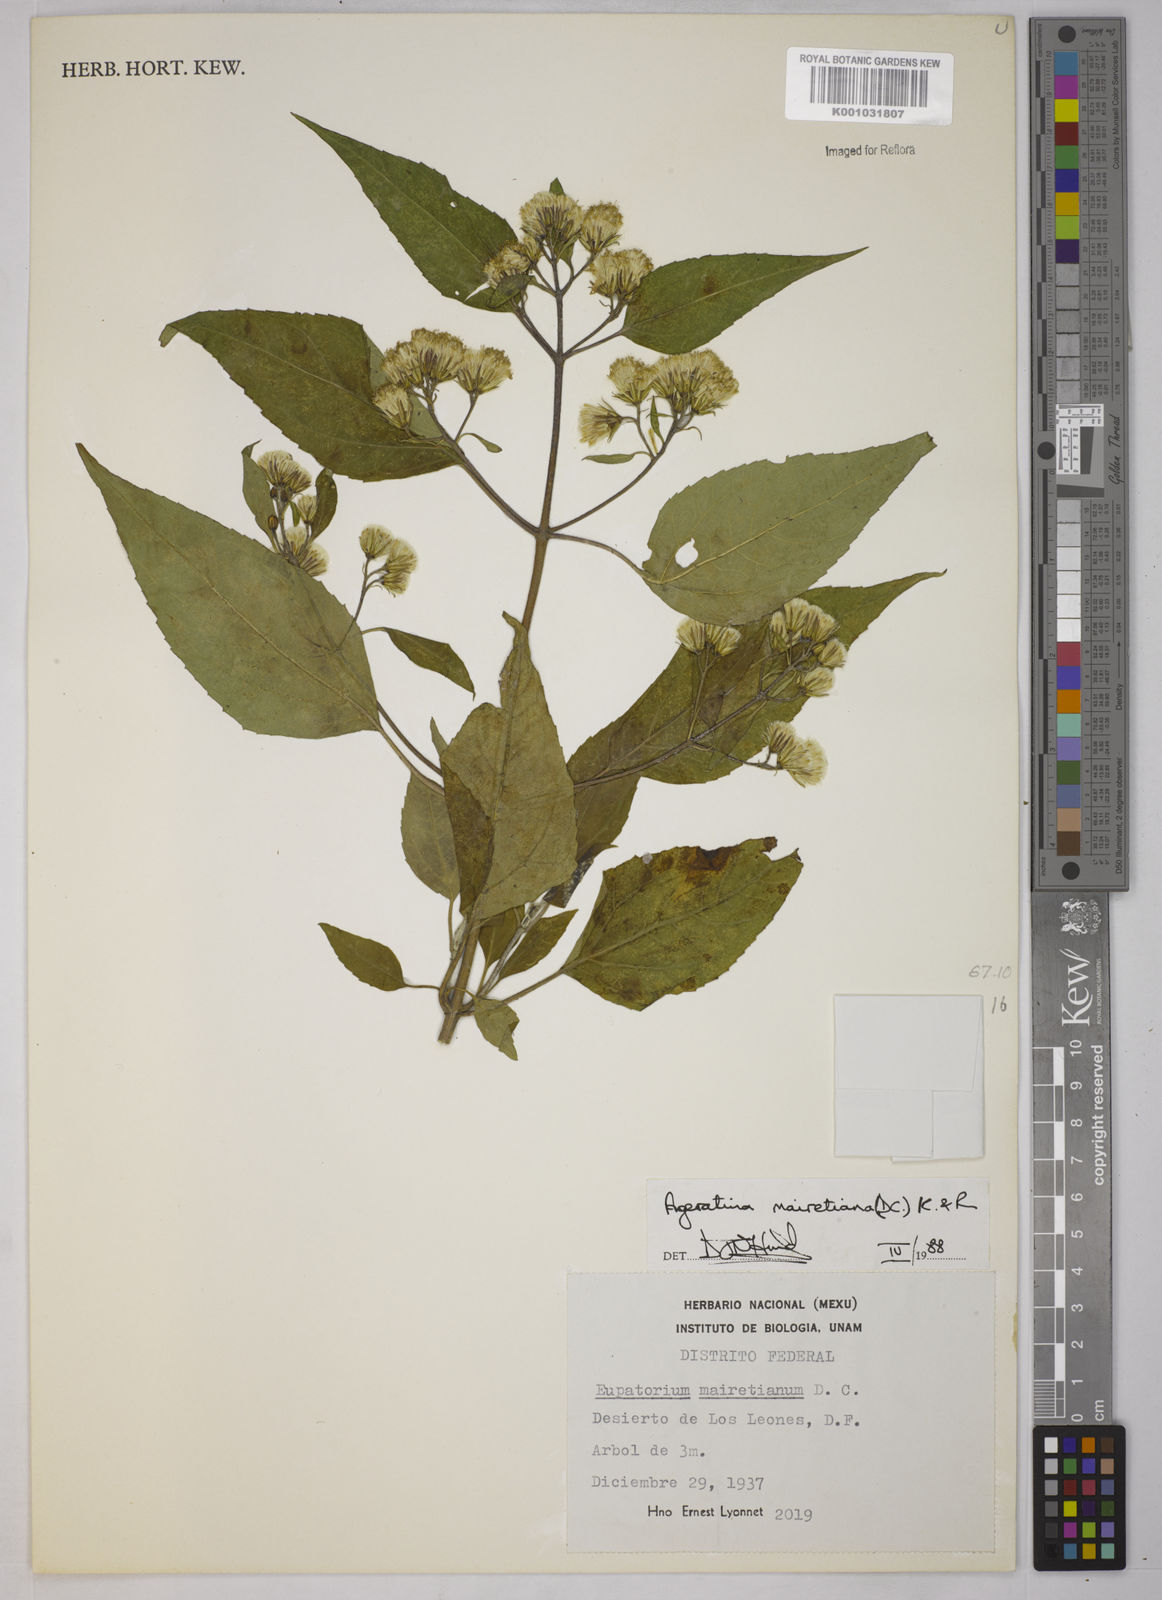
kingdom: Plantae
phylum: Tracheophyta
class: Magnoliopsida
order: Asterales
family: Asteraceae
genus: Ageratina
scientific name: Ageratina mairetiana
